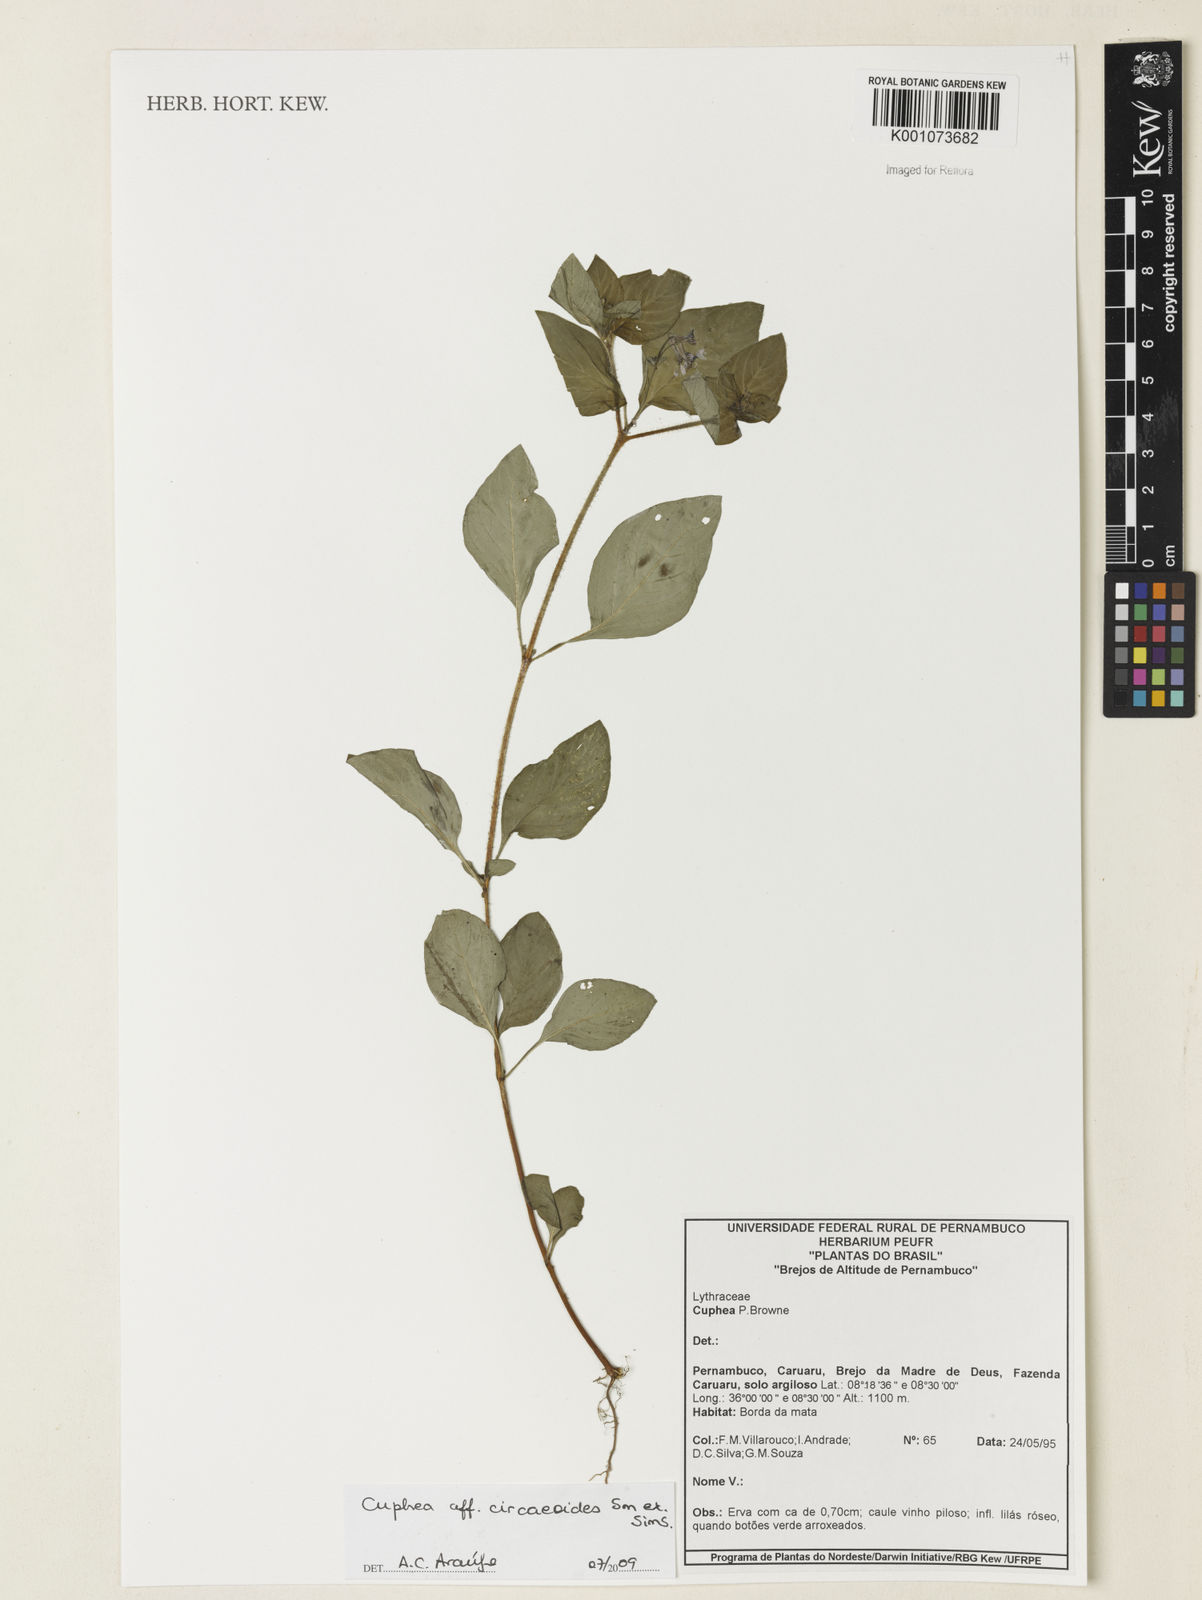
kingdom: Plantae
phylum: Tracheophyta
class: Magnoliopsida
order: Myrtales
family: Lythraceae
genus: Cuphea
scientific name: Cuphea circaeoides
